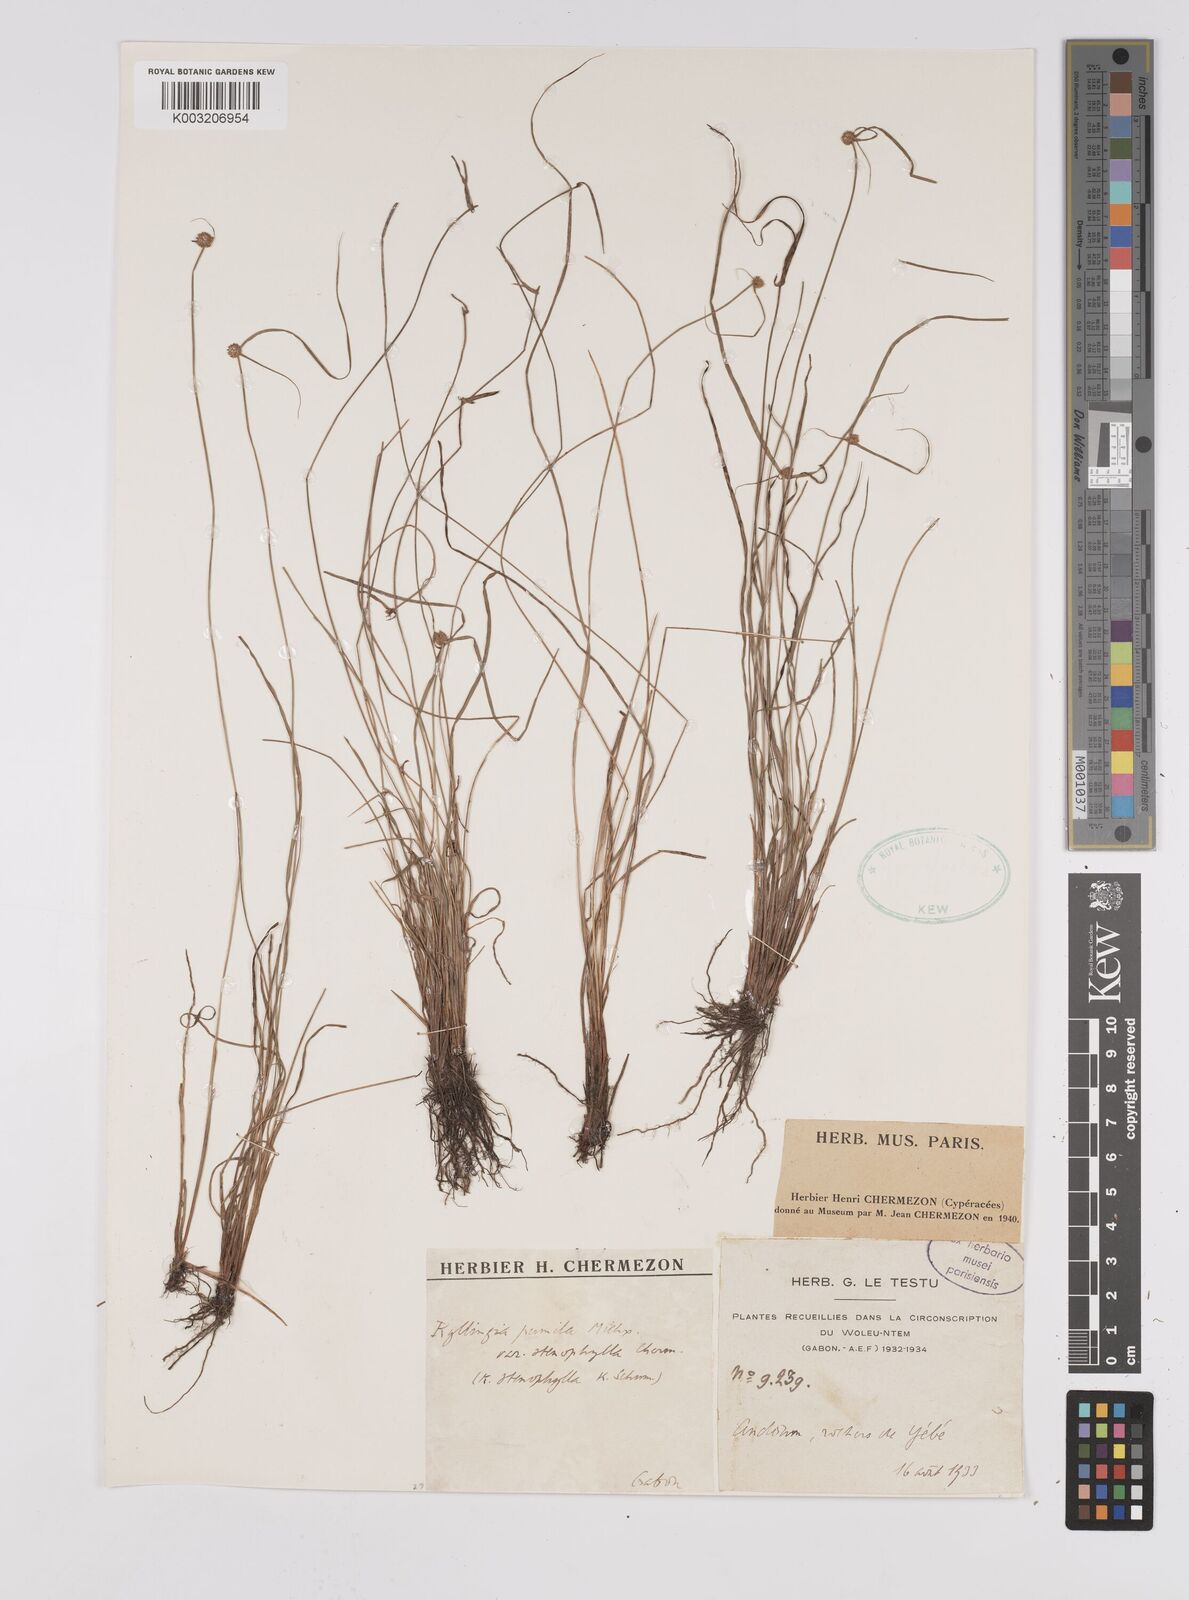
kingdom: Plantae
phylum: Tracheophyta
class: Liliopsida
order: Poales
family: Cyperaceae
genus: Cyperus
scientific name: Cyperus
